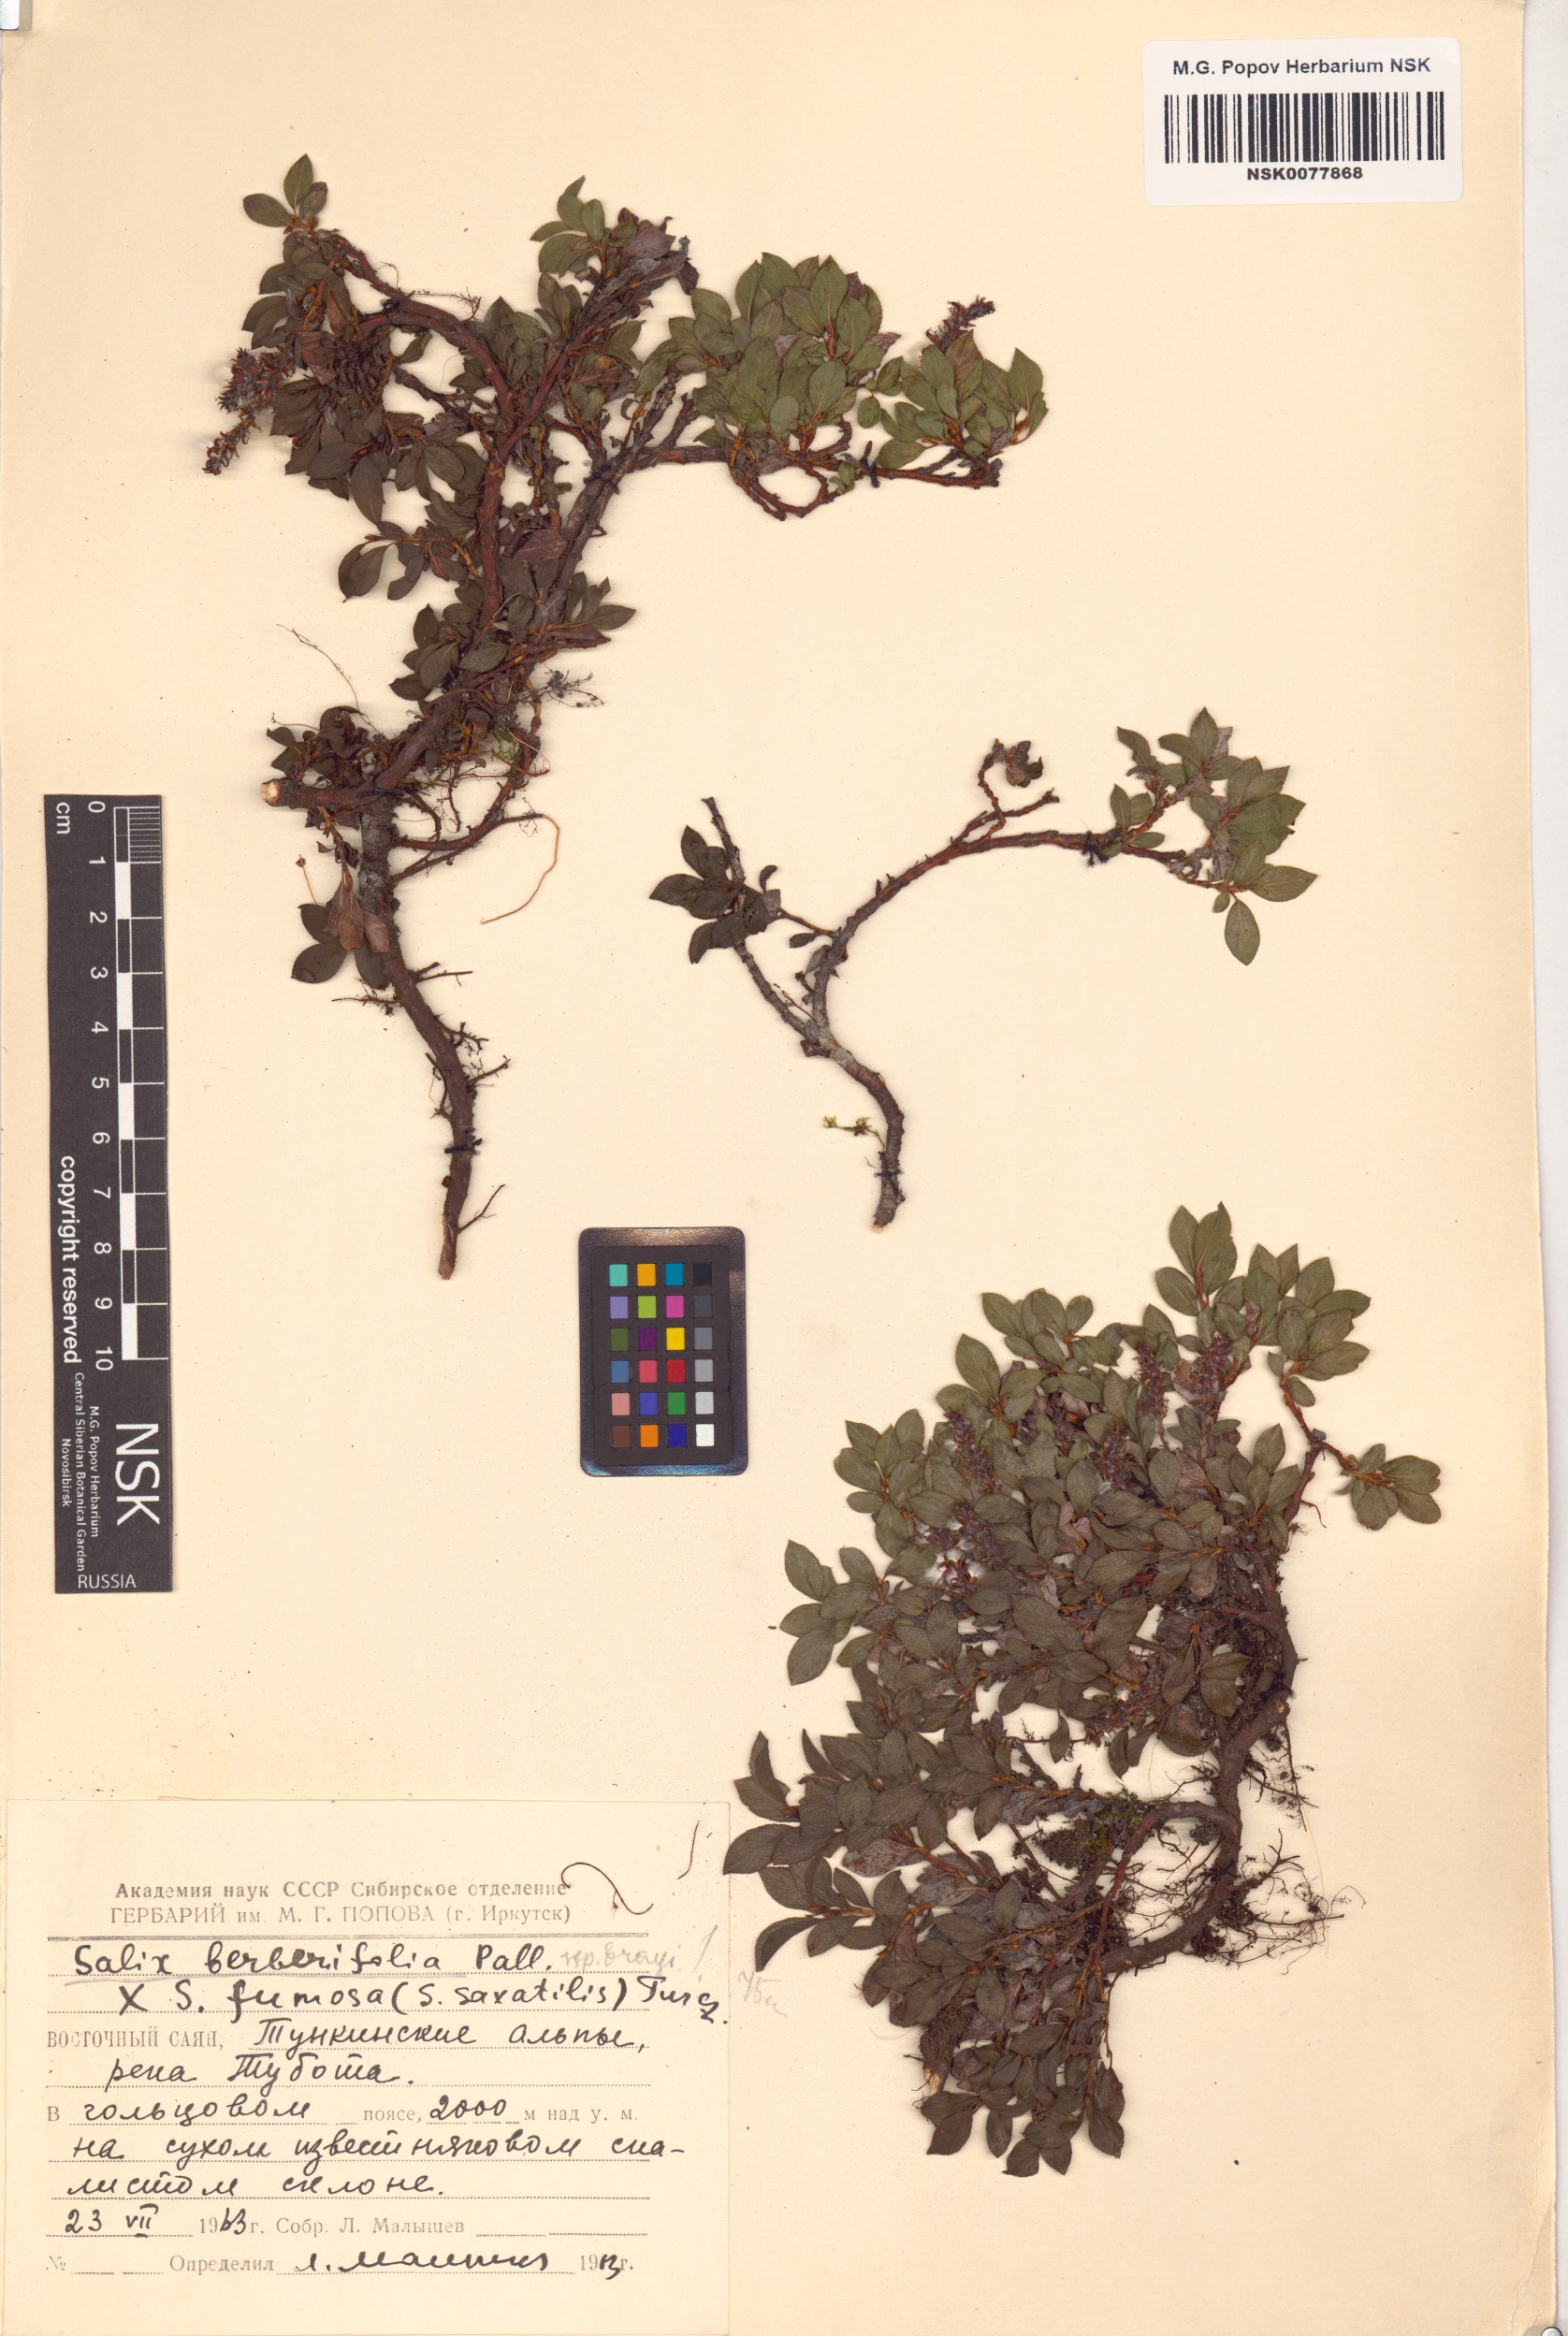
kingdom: Plantae
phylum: Tracheophyta
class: Magnoliopsida
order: Malpighiales
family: Salicaceae
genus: Salix
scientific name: Salix berberifolia
